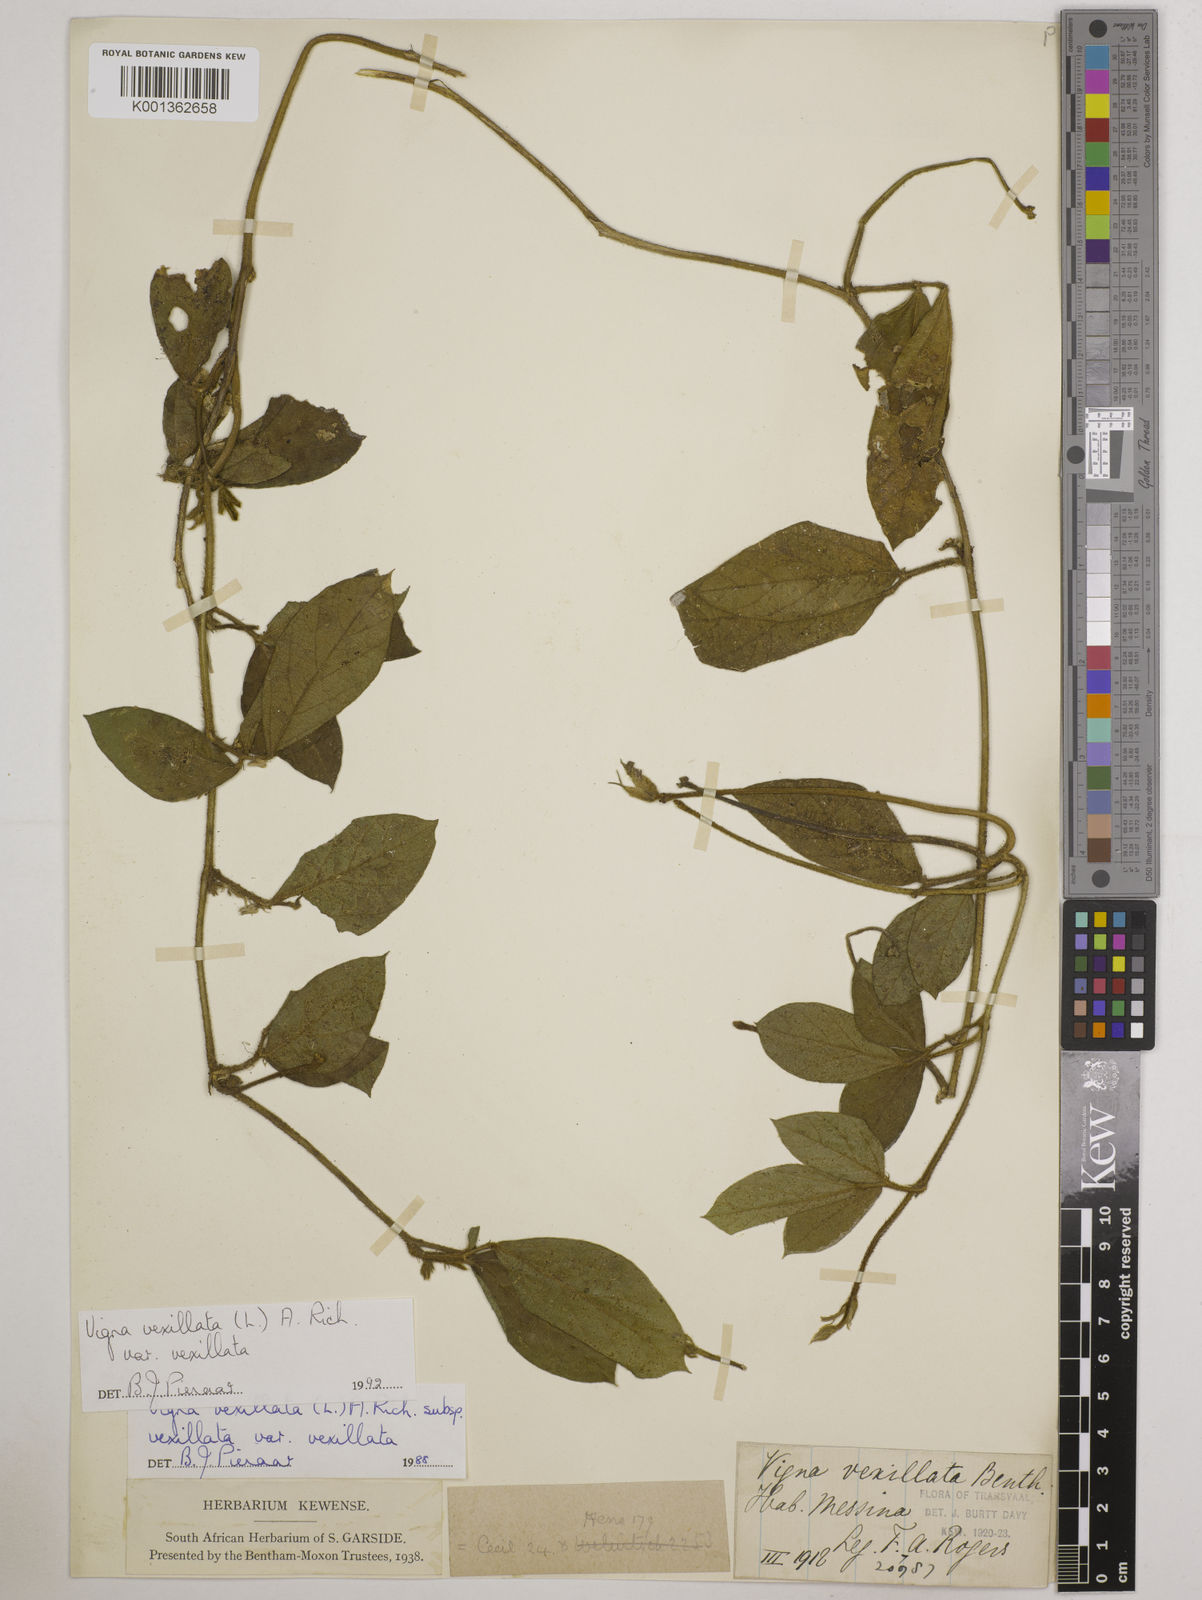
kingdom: Plantae
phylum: Tracheophyta
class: Magnoliopsida
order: Fabales
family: Fabaceae
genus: Vigna
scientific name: Vigna vexillata
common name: Zombi pea
